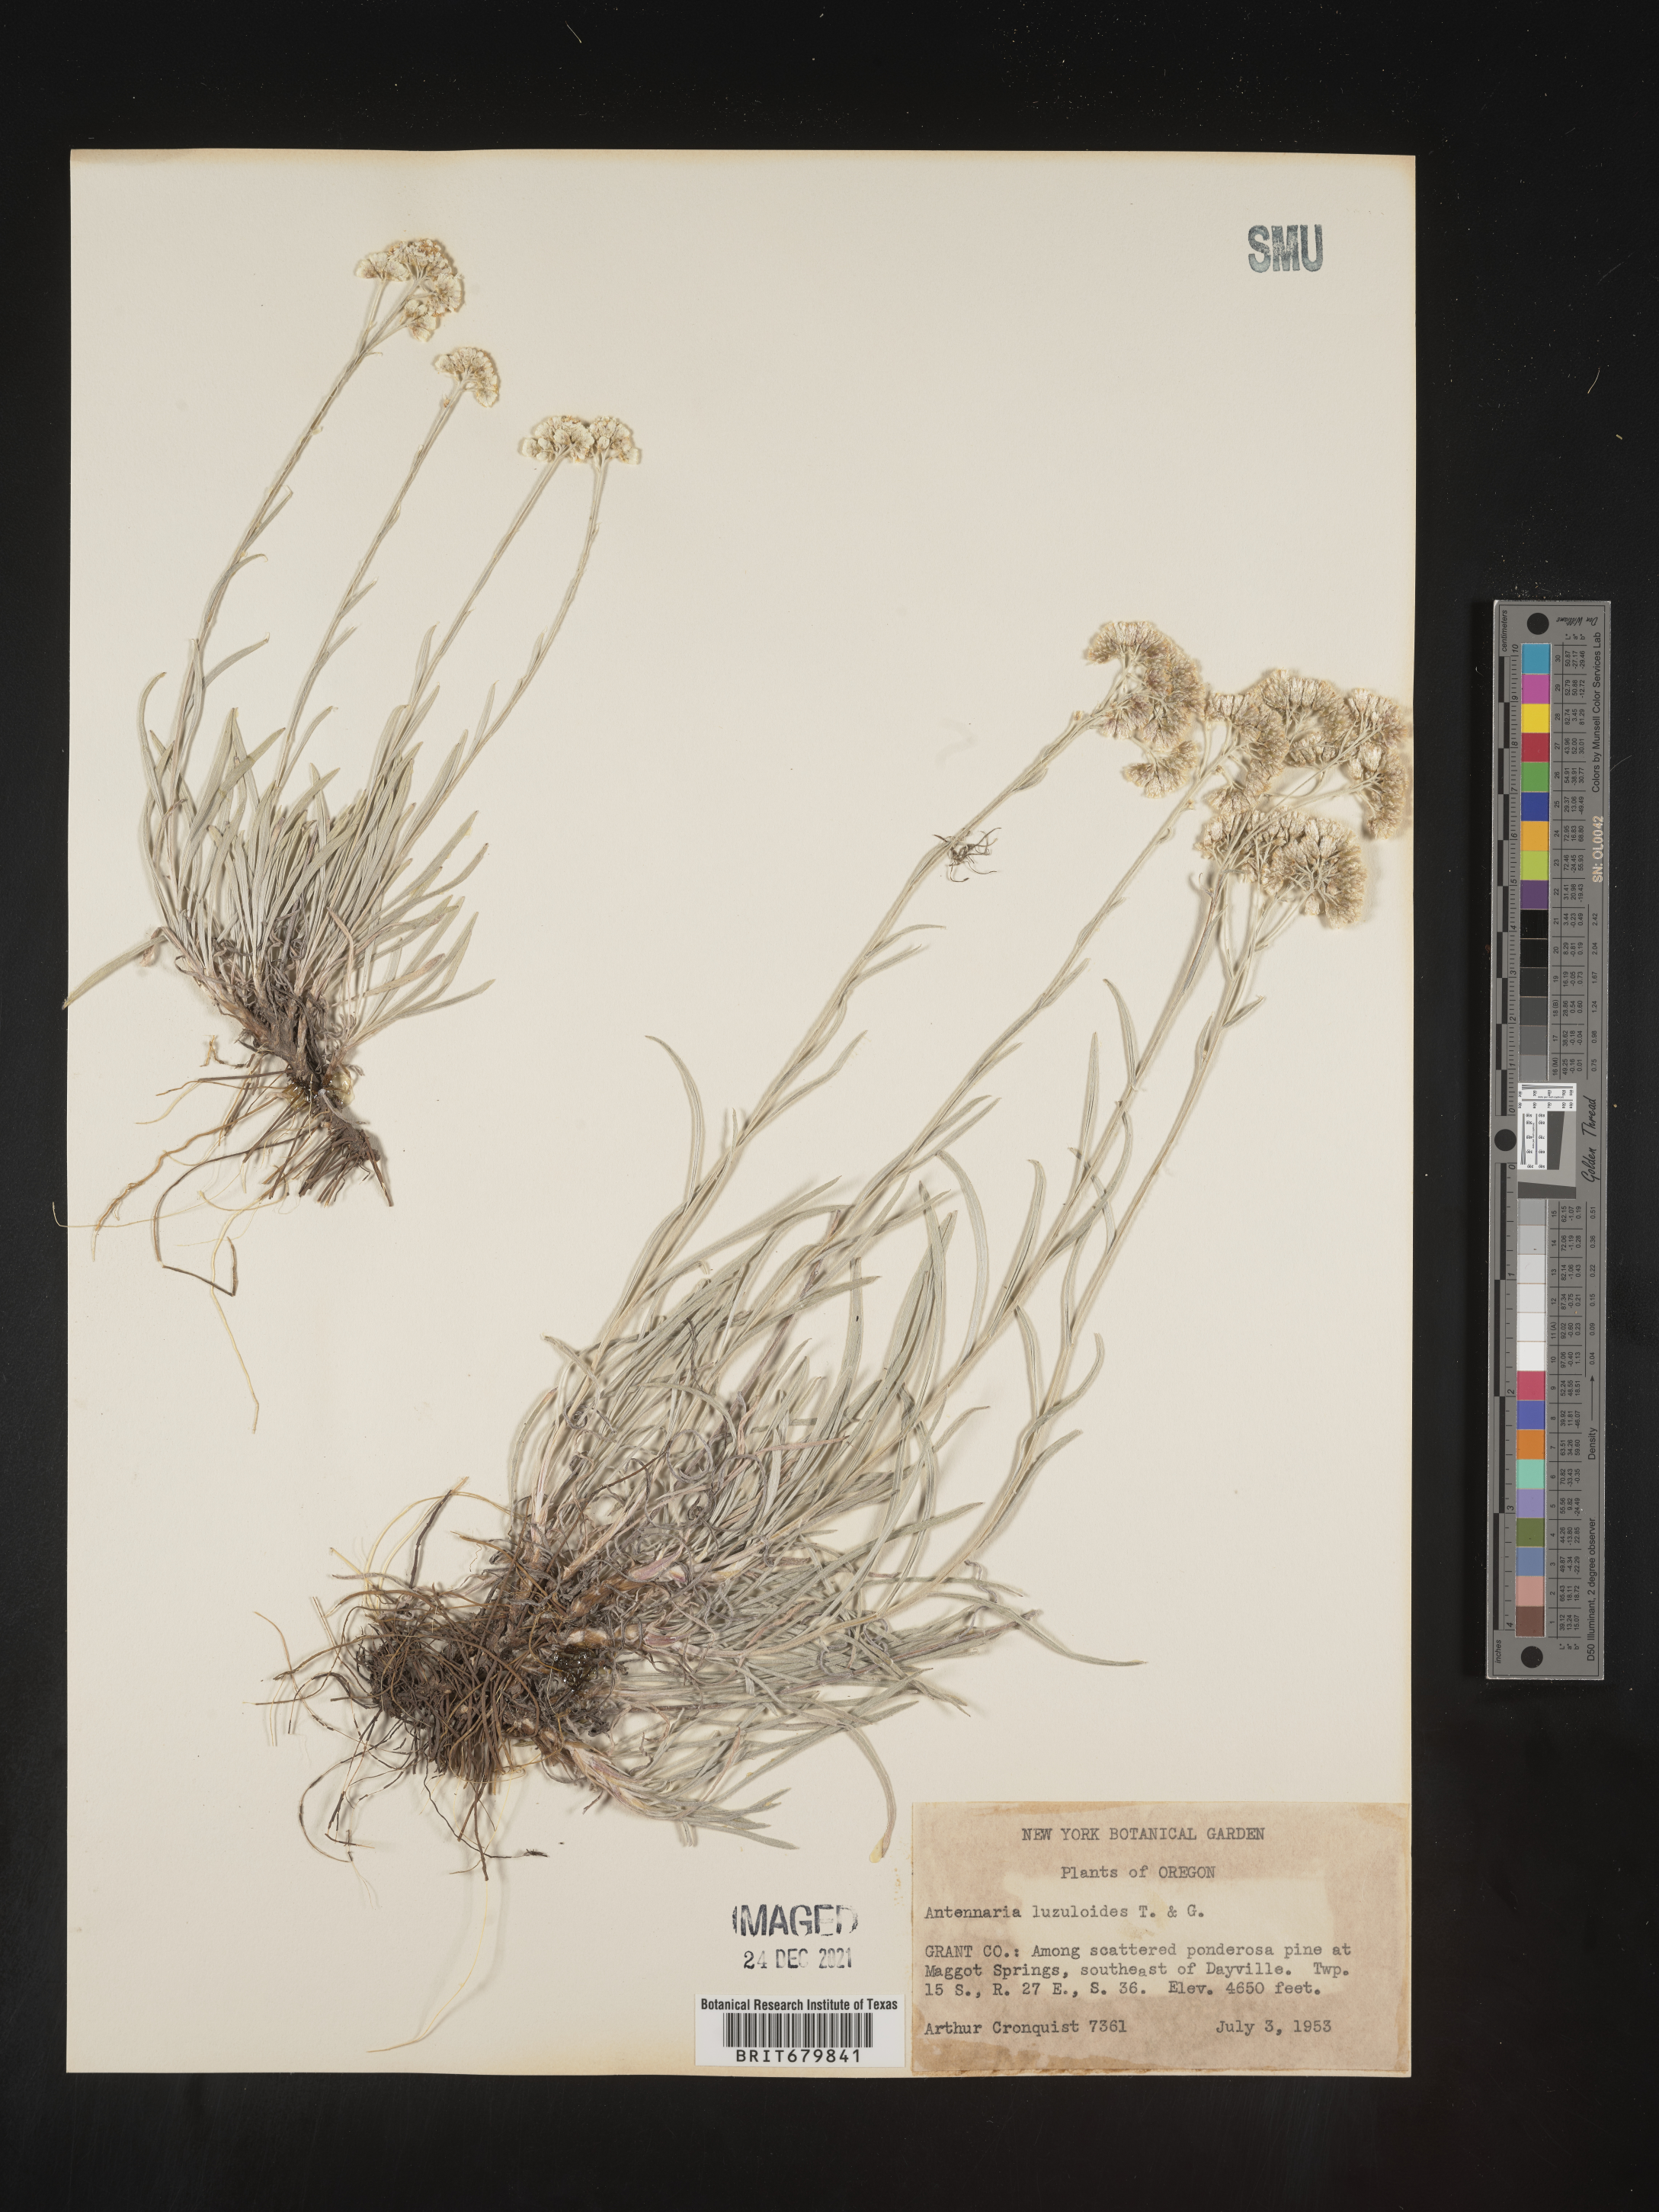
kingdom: Plantae
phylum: Tracheophyta
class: Magnoliopsida
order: Asterales
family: Asteraceae
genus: Antennaria
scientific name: Antennaria luzuloides
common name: Rush pussytoes
